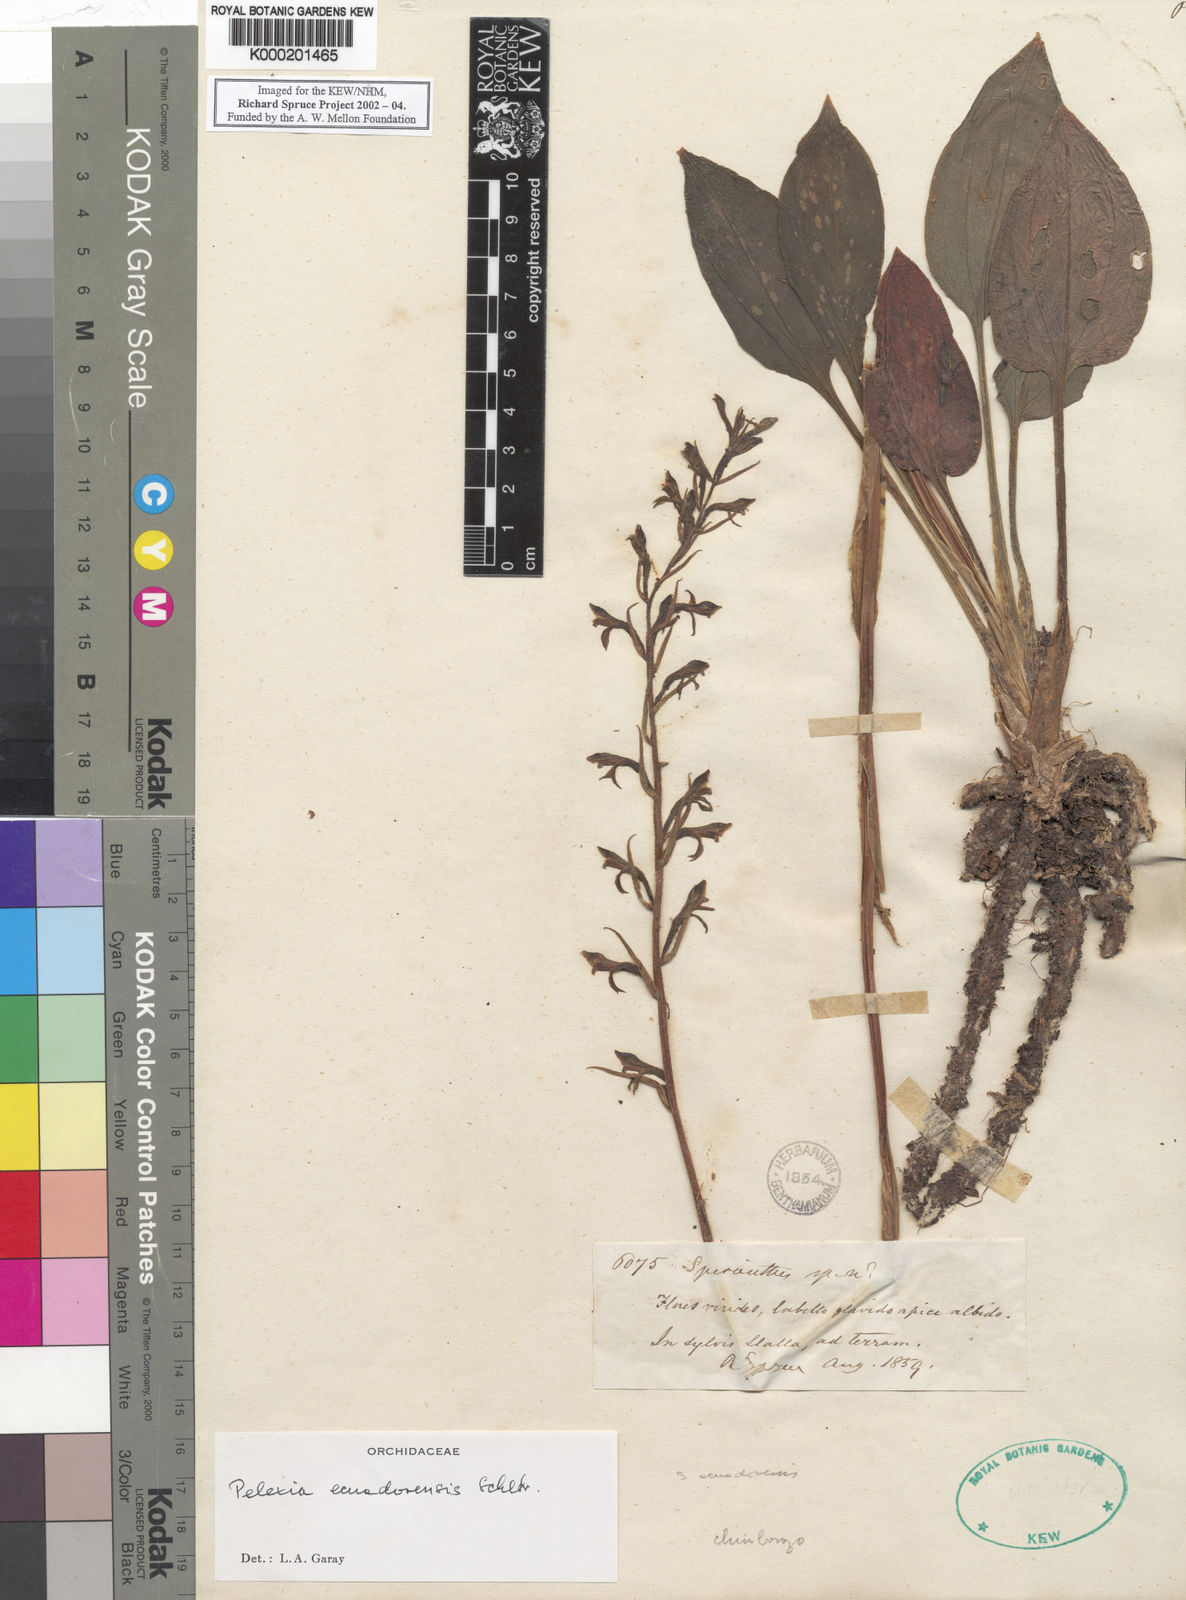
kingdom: Plantae
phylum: Tracheophyta
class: Liliopsida
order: Asparagales
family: Orchidaceae
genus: Pelexia
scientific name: Pelexia ecuadorensis
